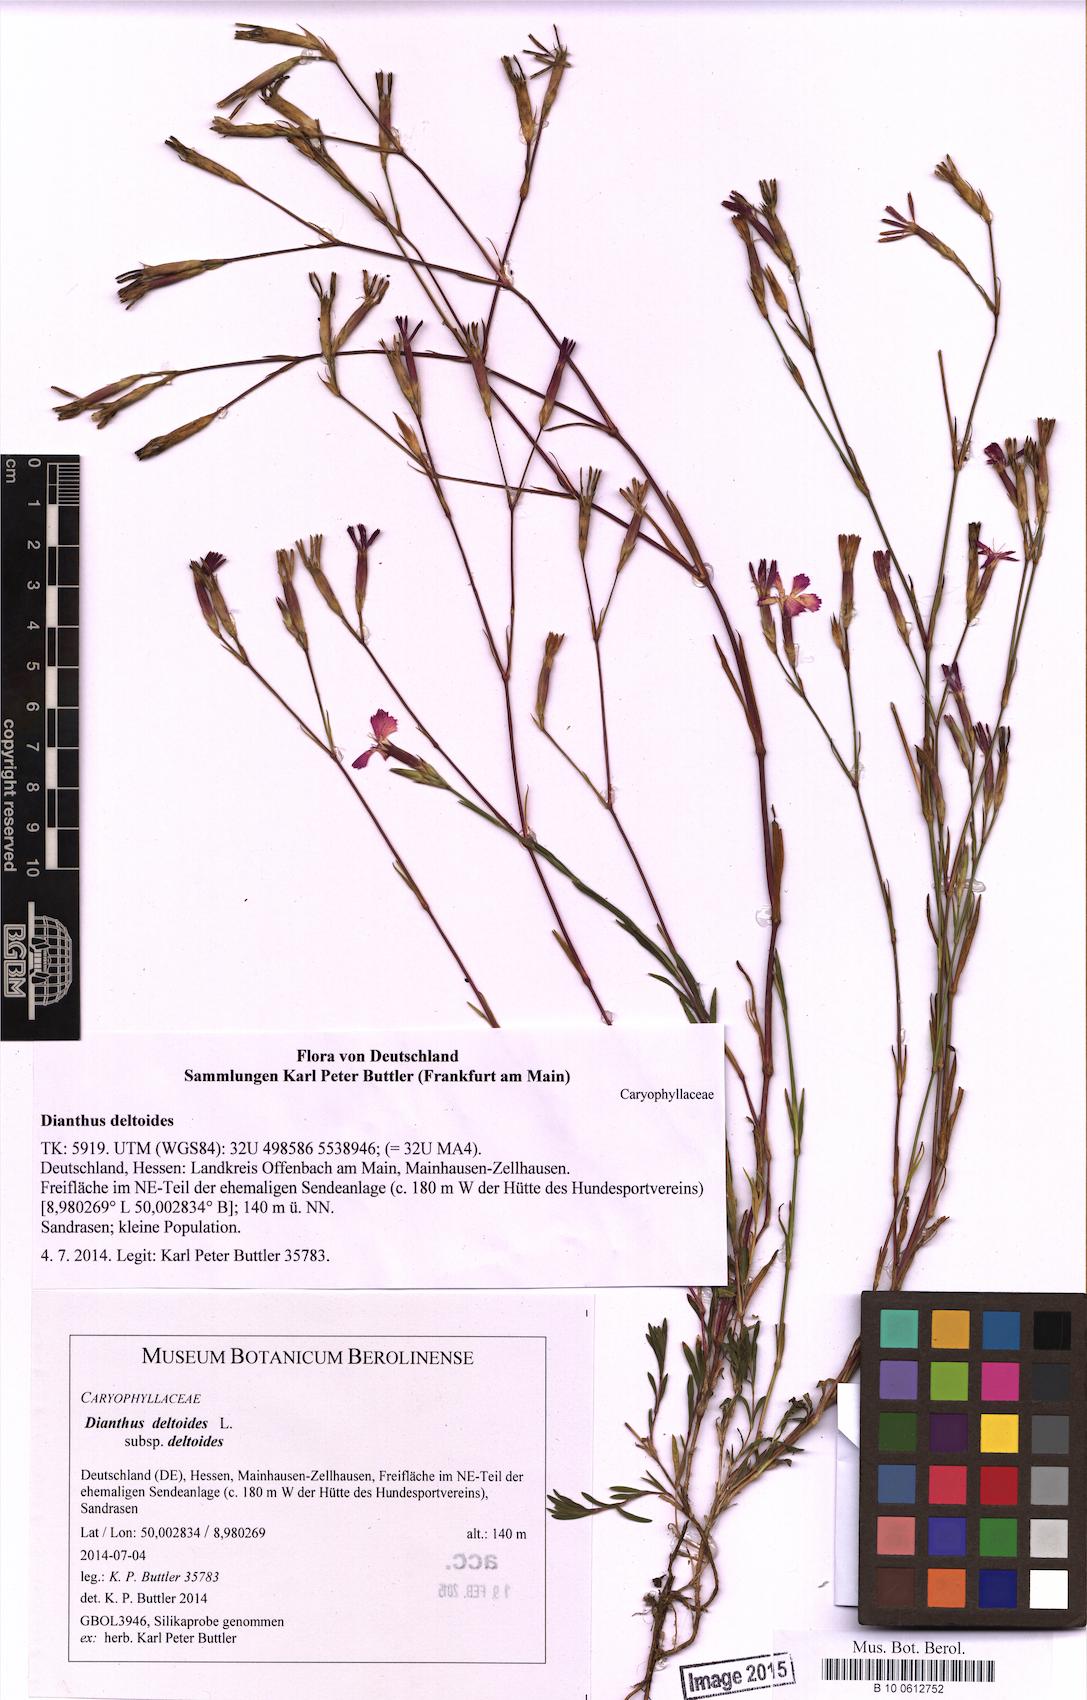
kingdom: Plantae
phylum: Tracheophyta
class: Magnoliopsida
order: Caryophyllales
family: Caryophyllaceae
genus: Dianthus
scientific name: Dianthus deltoides
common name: Maiden pink
